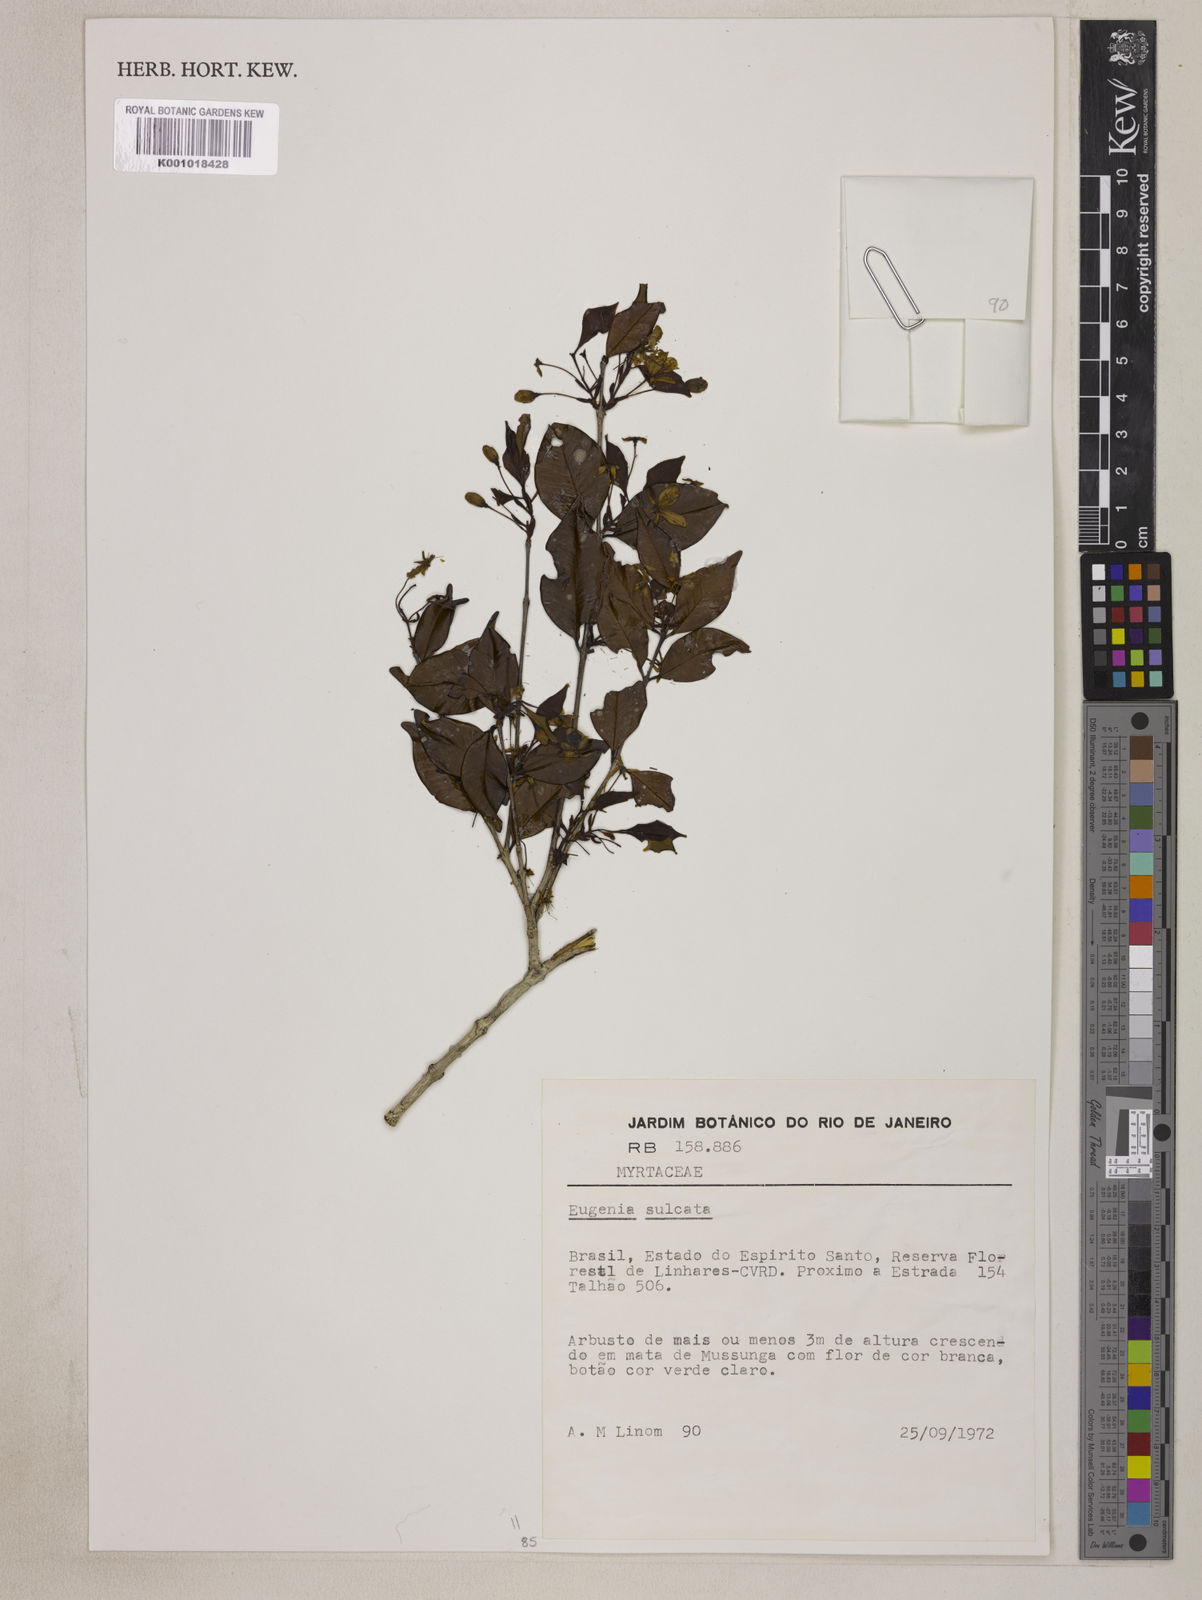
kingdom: Plantae
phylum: Tracheophyta
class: Magnoliopsida
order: Myrtales
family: Myrtaceae
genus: Eugenia
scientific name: Eugenia sulcata
